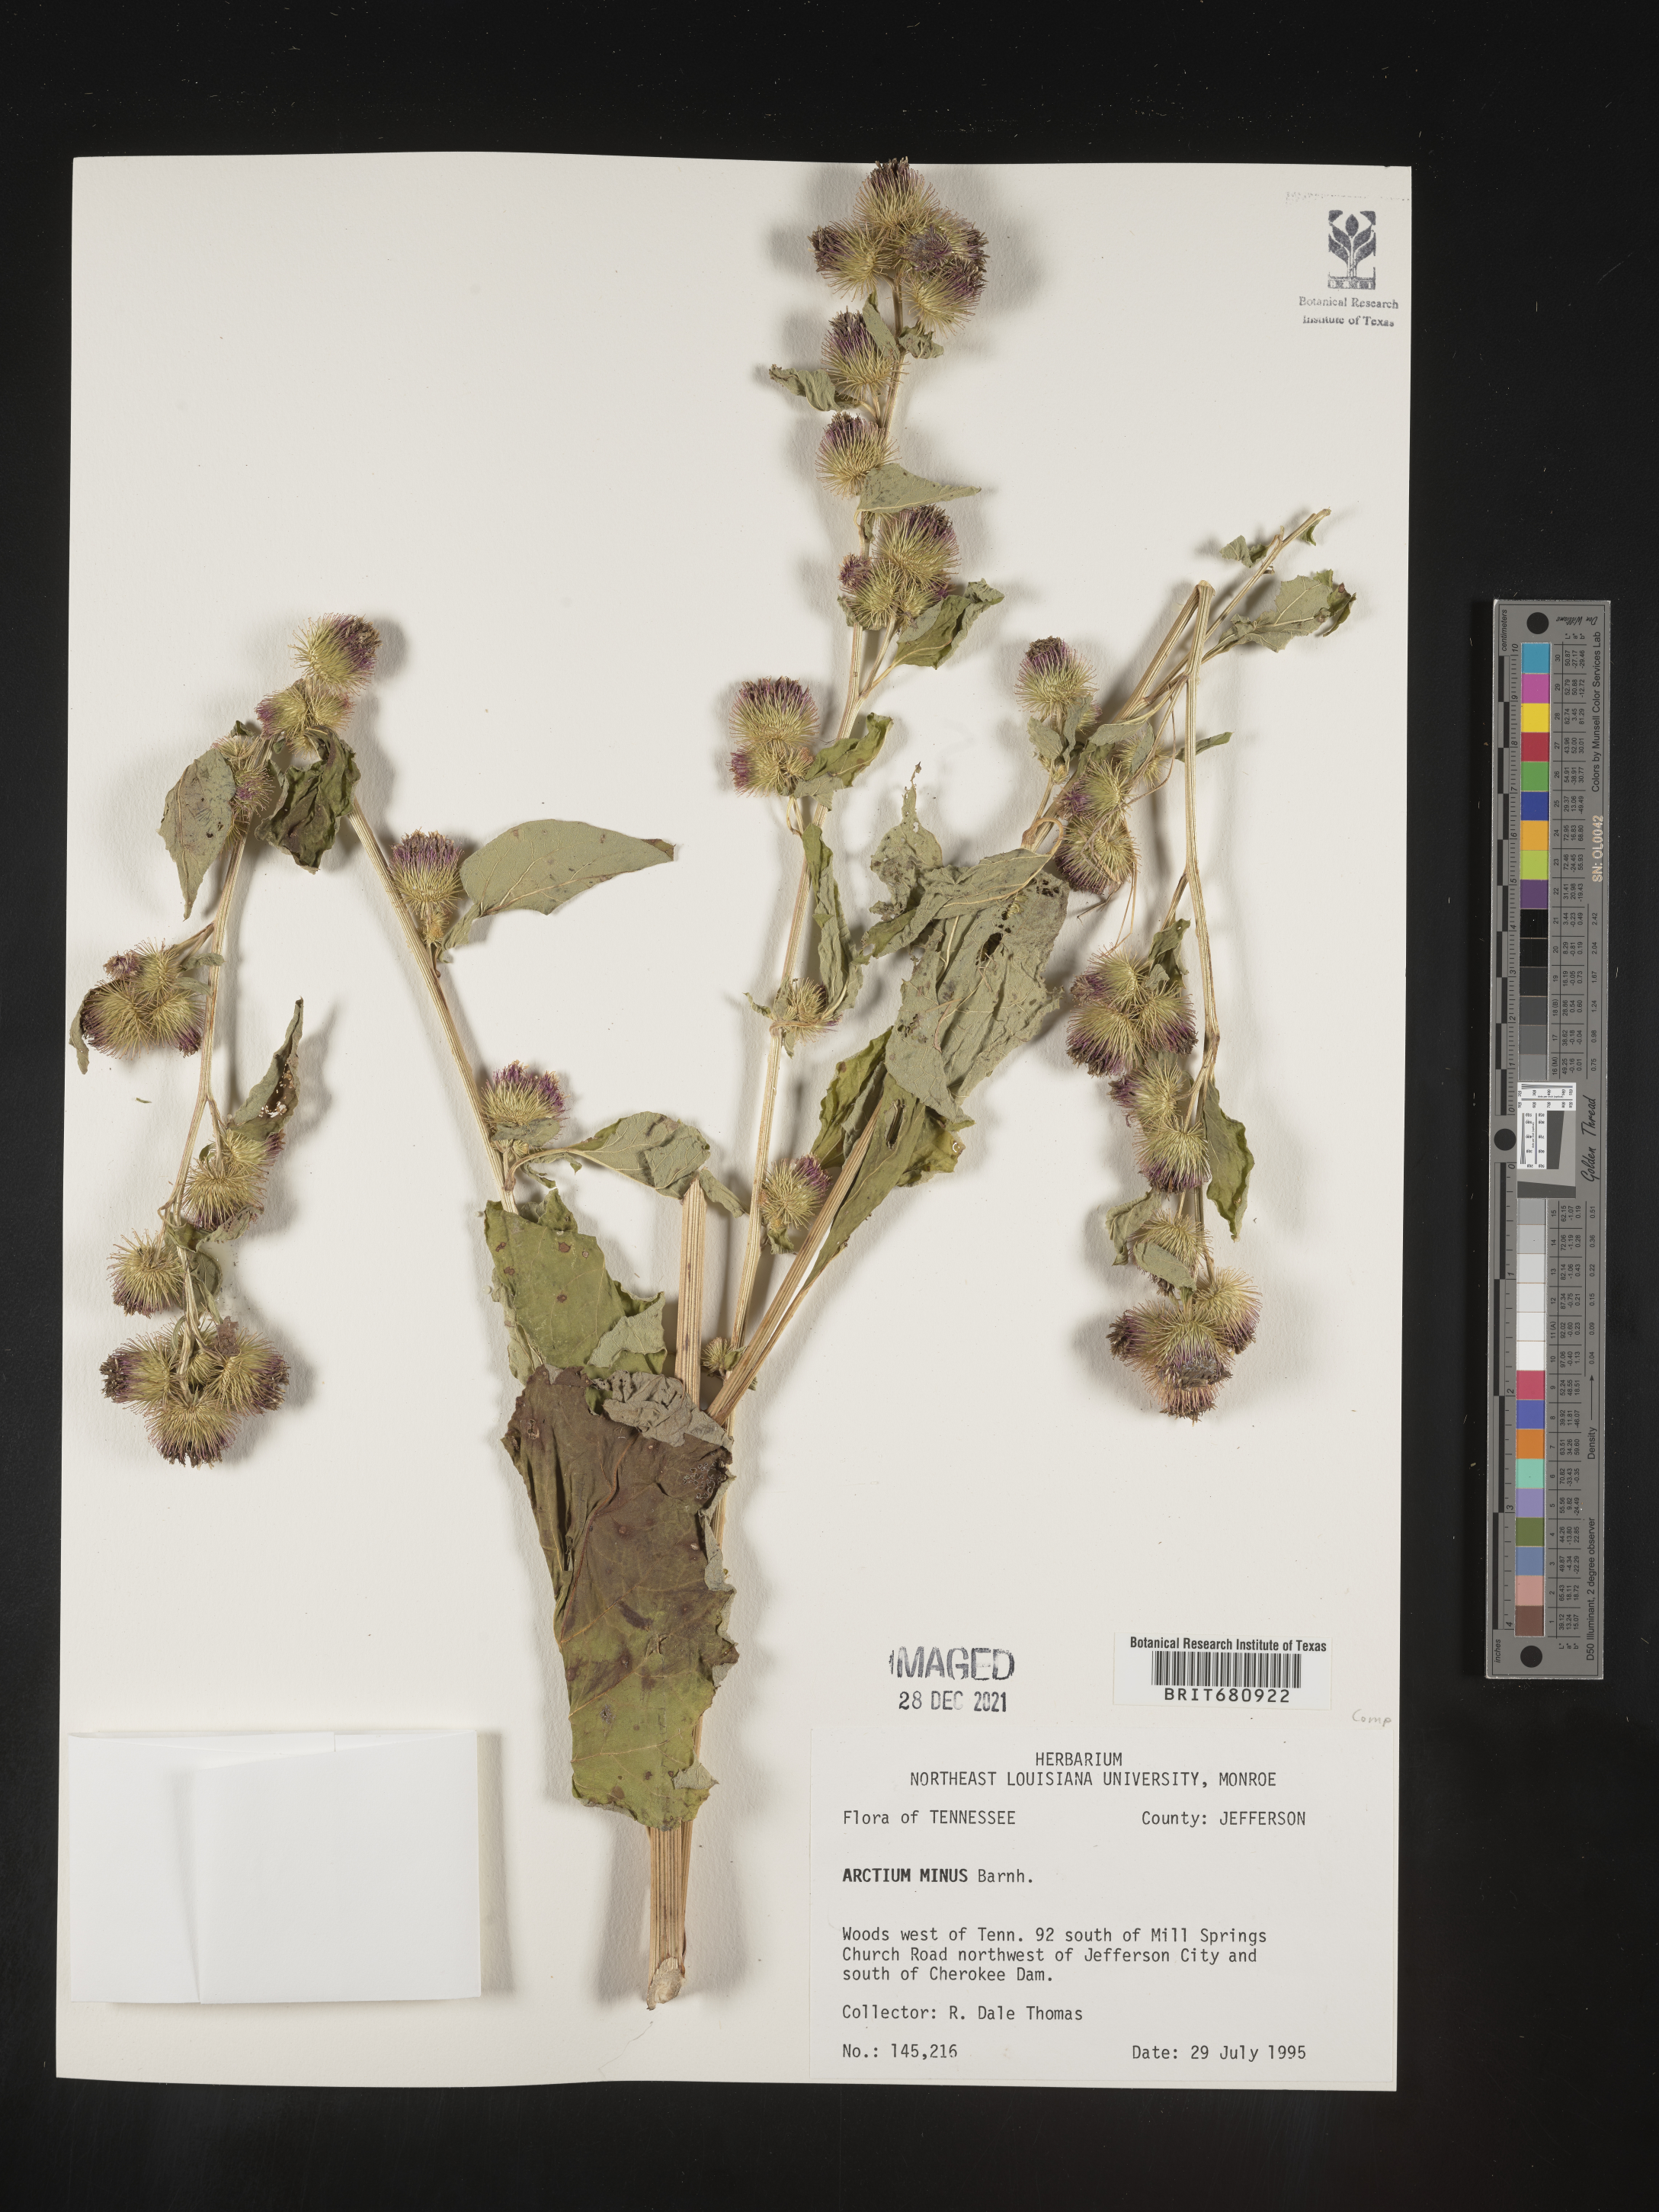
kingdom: Plantae
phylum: Tracheophyta
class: Magnoliopsida
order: Asterales
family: Asteraceae
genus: Arctium
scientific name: Arctium minus
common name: Lesser burdock
